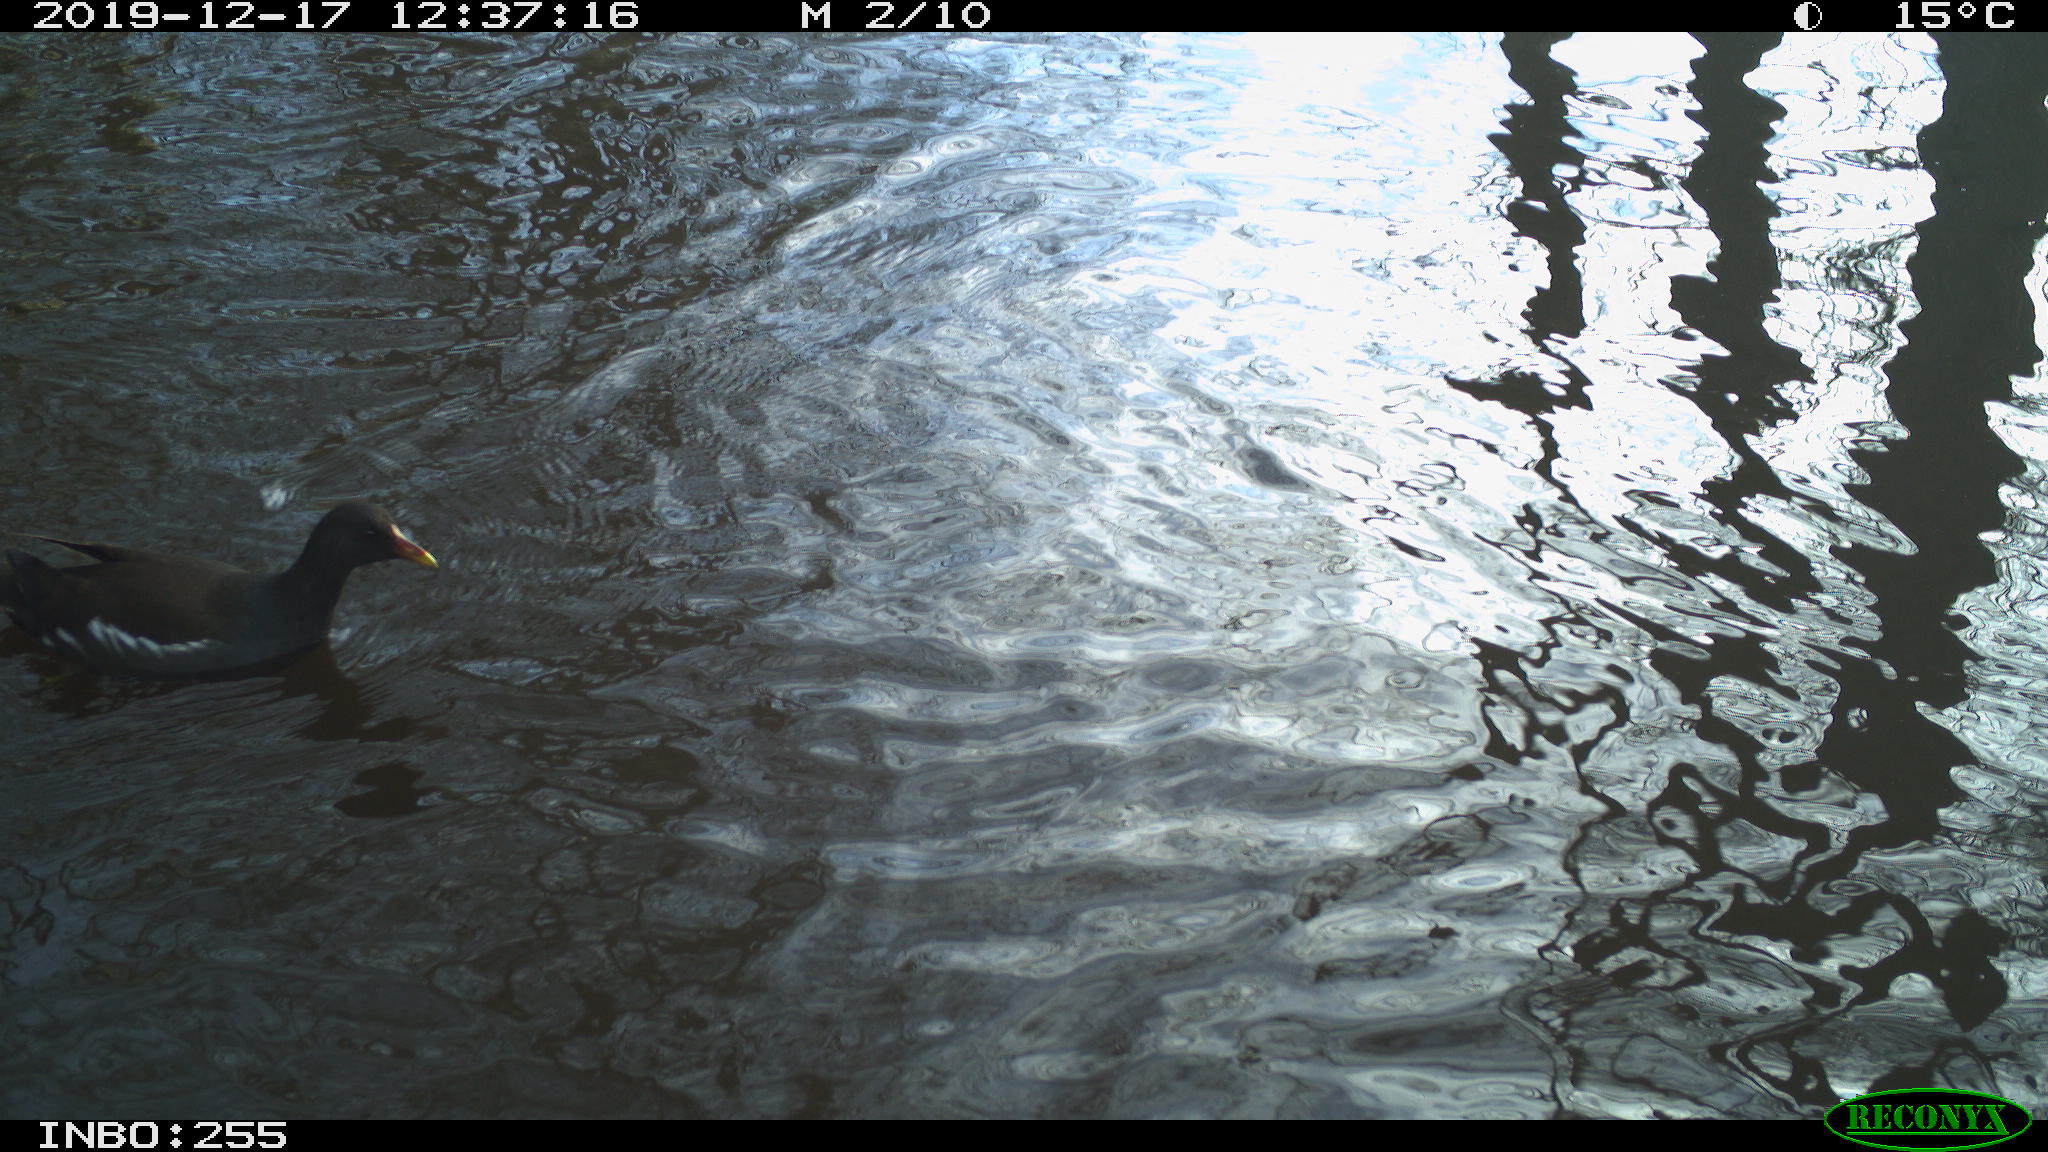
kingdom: Animalia
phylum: Chordata
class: Aves
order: Gruiformes
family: Rallidae
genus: Gallinula
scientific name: Gallinula chloropus
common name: Common moorhen
